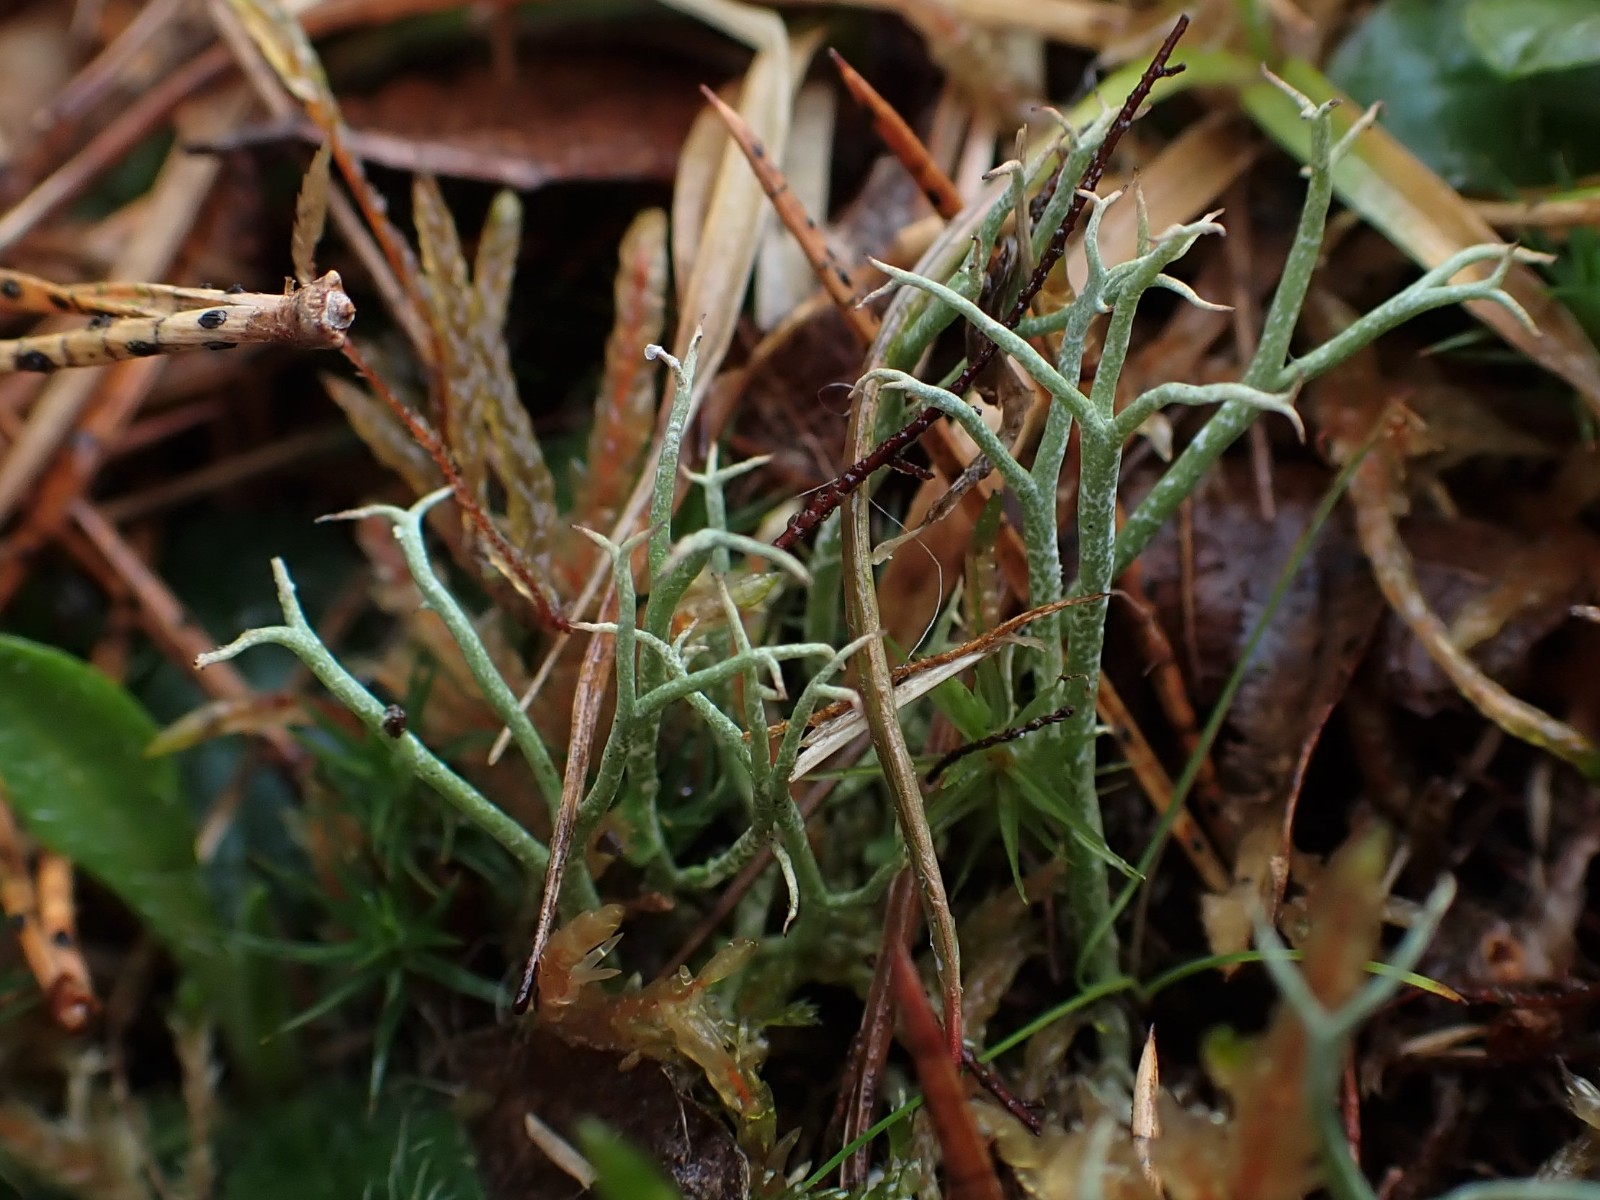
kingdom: Fungi
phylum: Ascomycota
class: Lecanoromycetes
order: Lecanorales
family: Cladoniaceae
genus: Cladonia
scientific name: Cladonia furcata
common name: kløftet bægerlav
